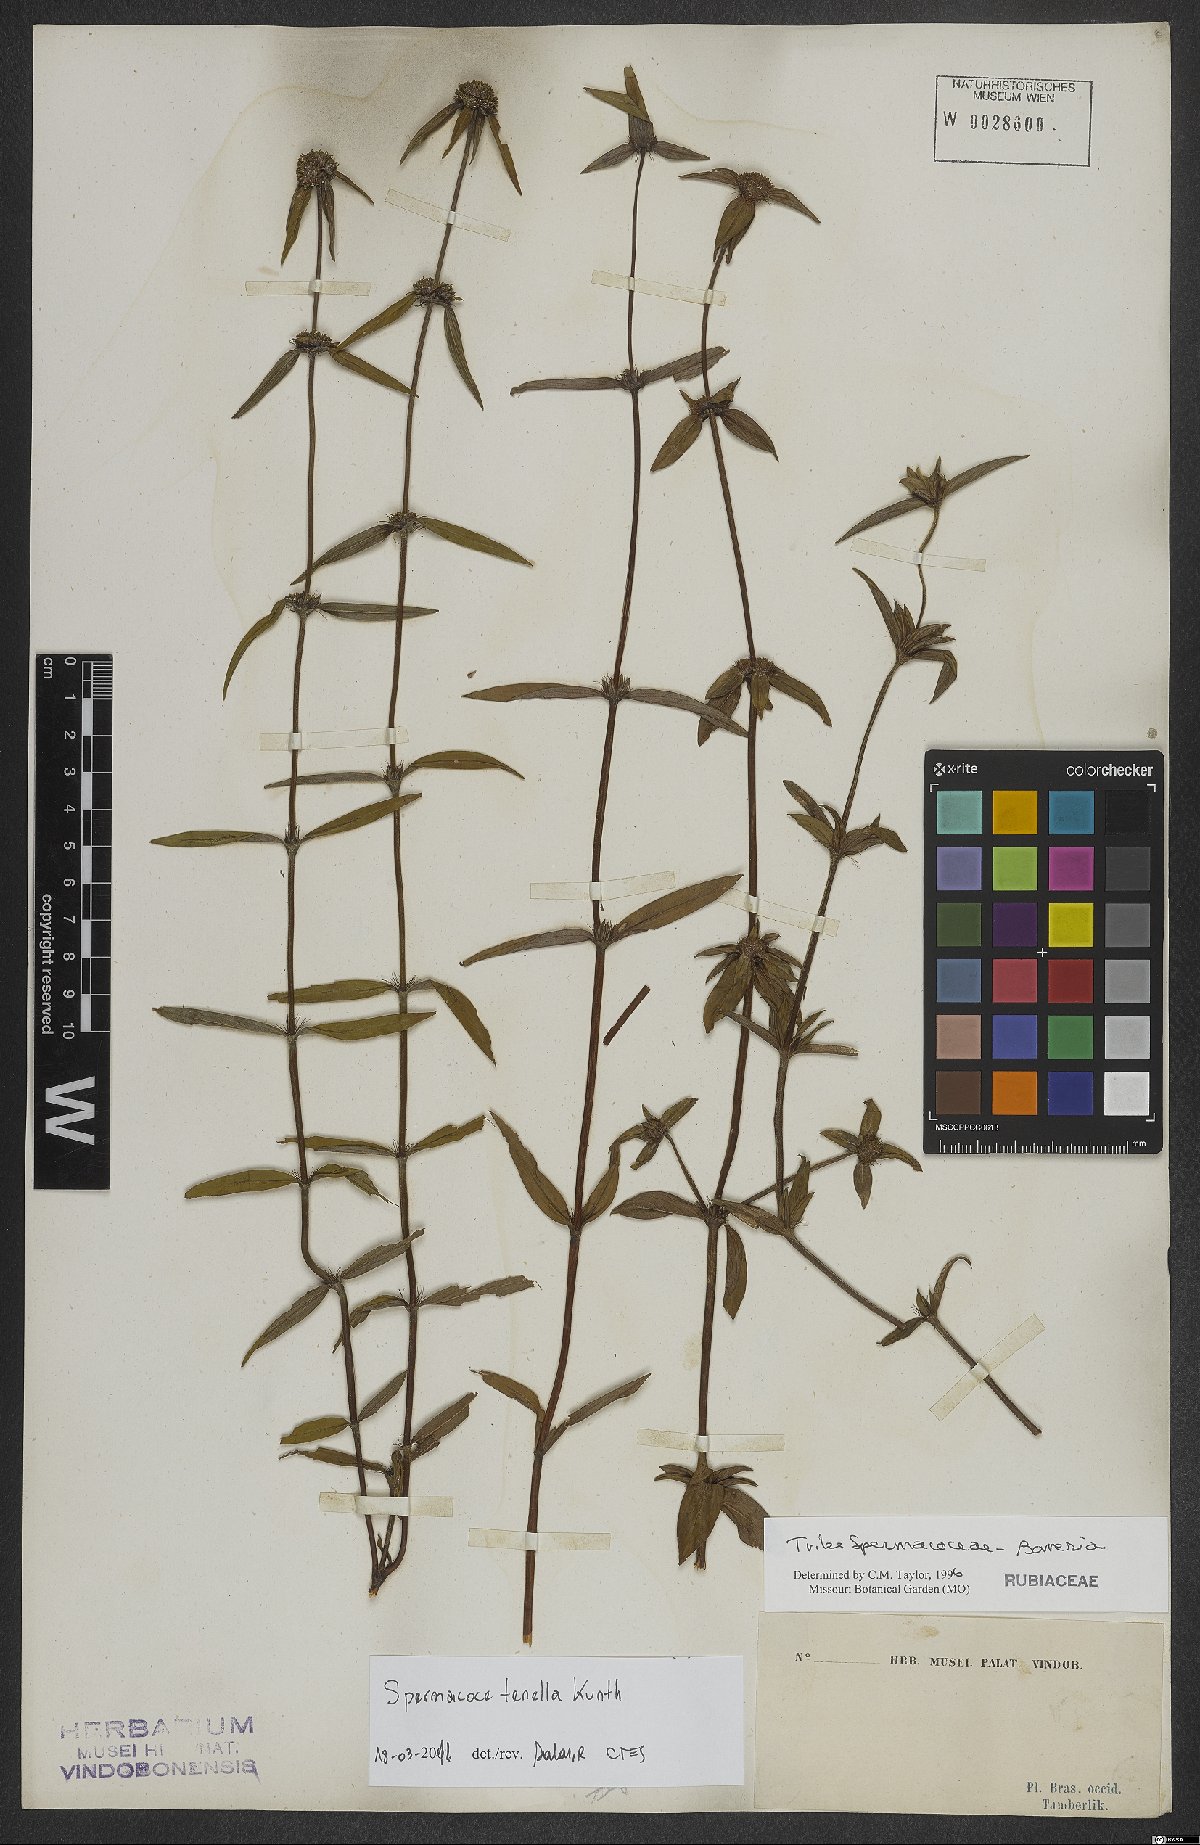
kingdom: Plantae
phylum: Tracheophyta
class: Magnoliopsida
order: Gentianales
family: Rubiaceae
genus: Spermacoce
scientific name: Spermacoce orinocensis
